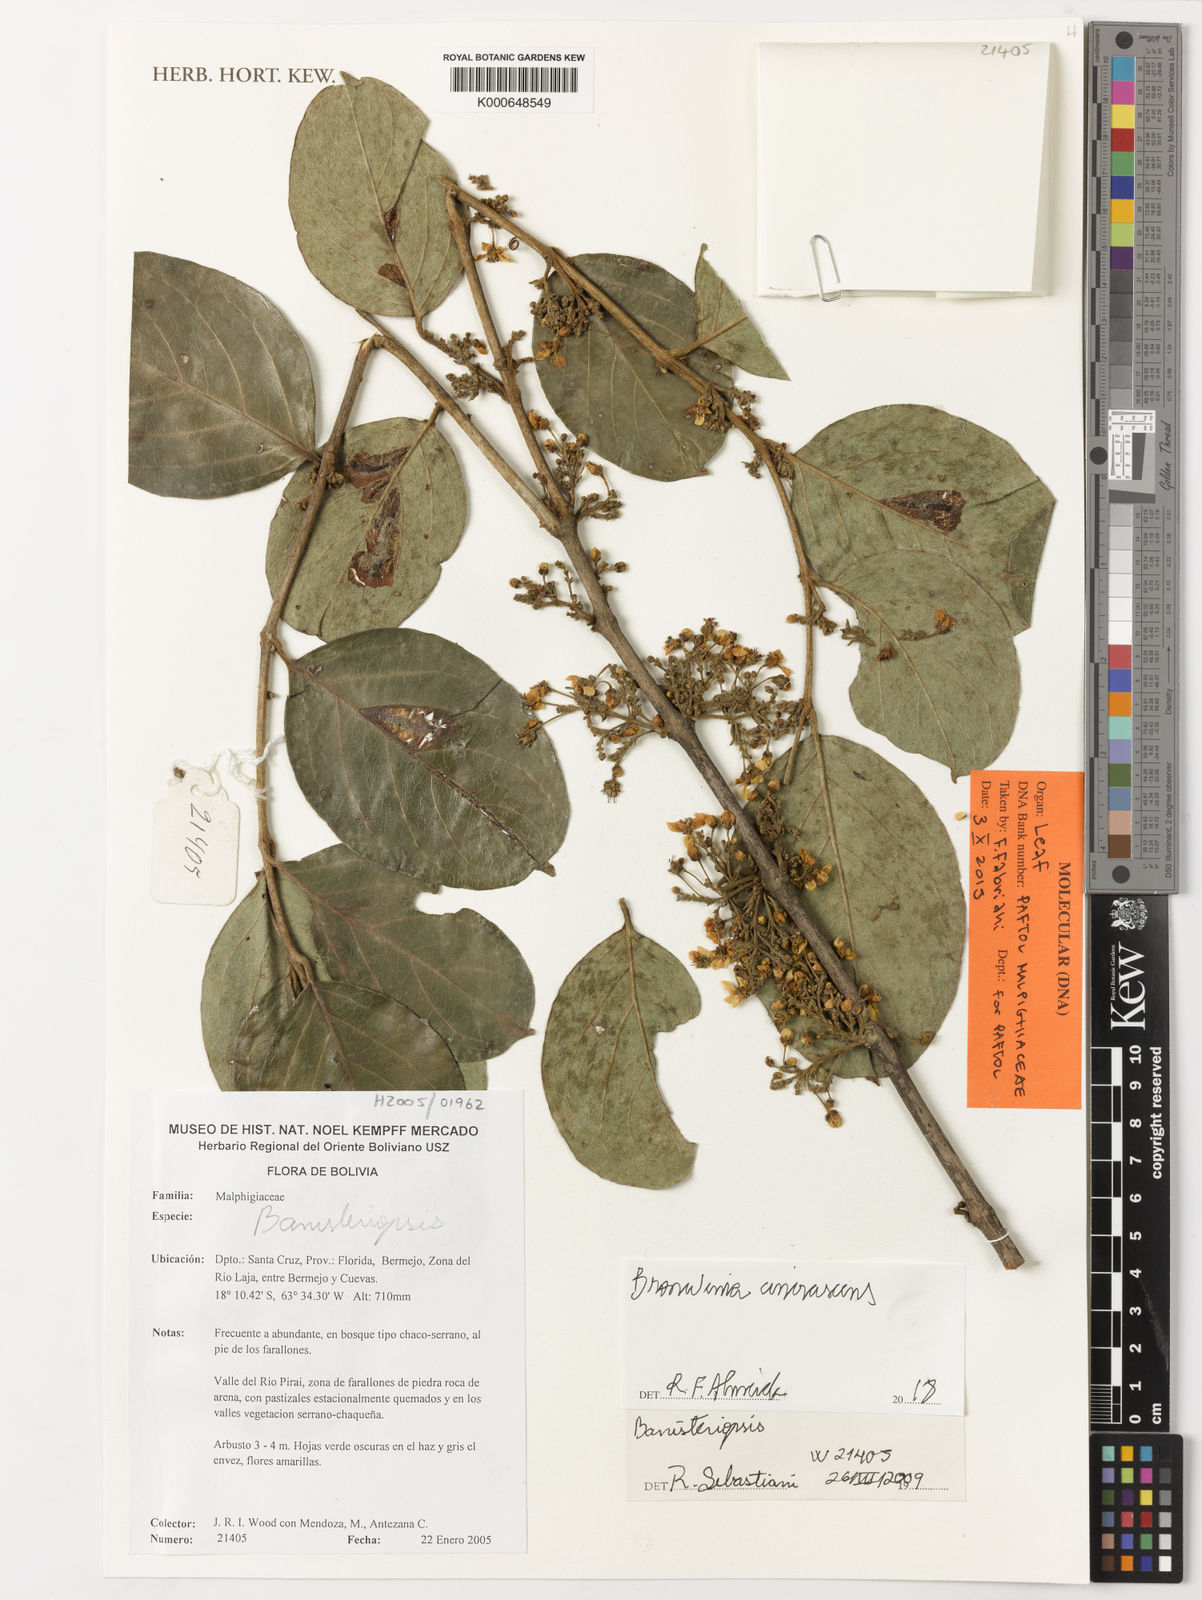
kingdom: Plantae
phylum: Tracheophyta
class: Magnoliopsida
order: Malpighiales
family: Malpighiaceae
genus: Bronwenia
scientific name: Bronwenia cinerascens
